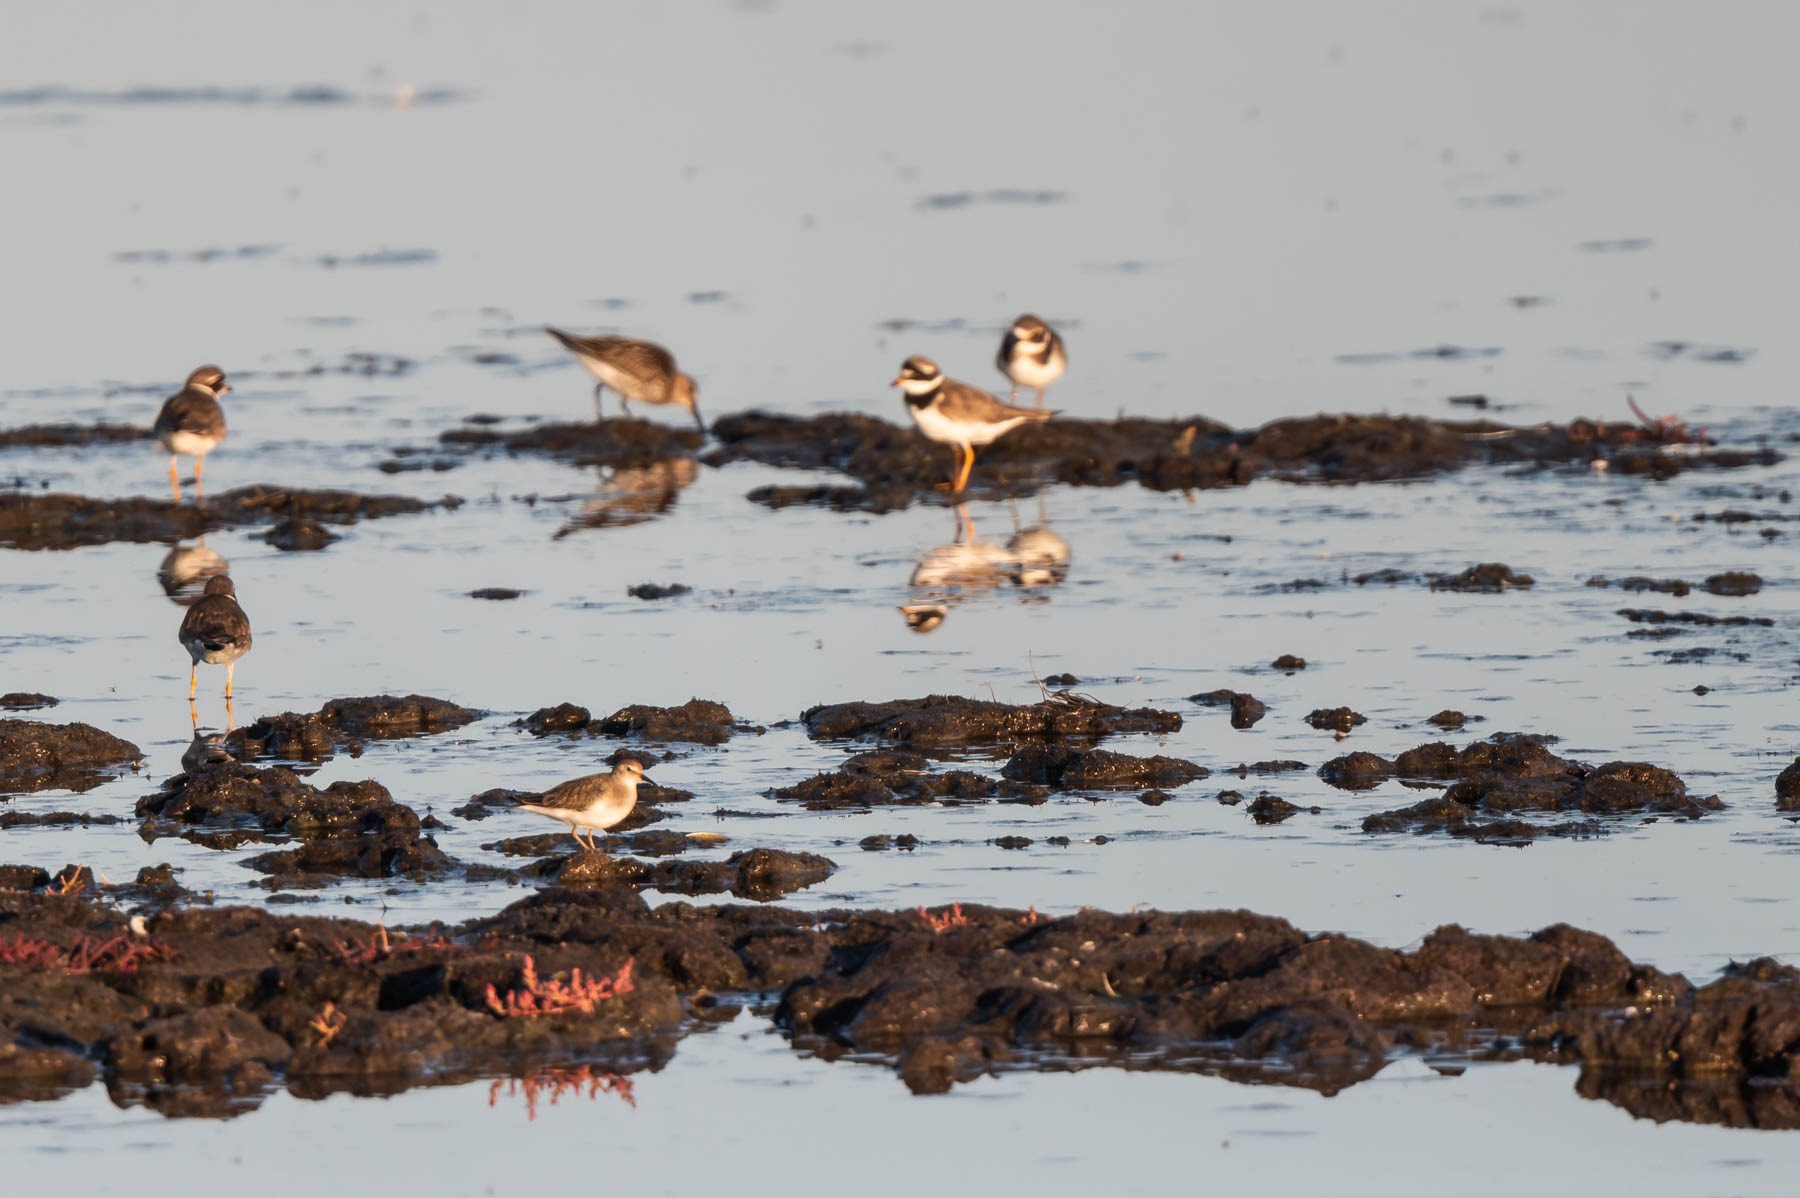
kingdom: Animalia
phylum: Chordata
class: Aves
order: Charadriiformes
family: Scolopacidae
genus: Calidris
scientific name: Calidris minuta
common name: Dværgryle
